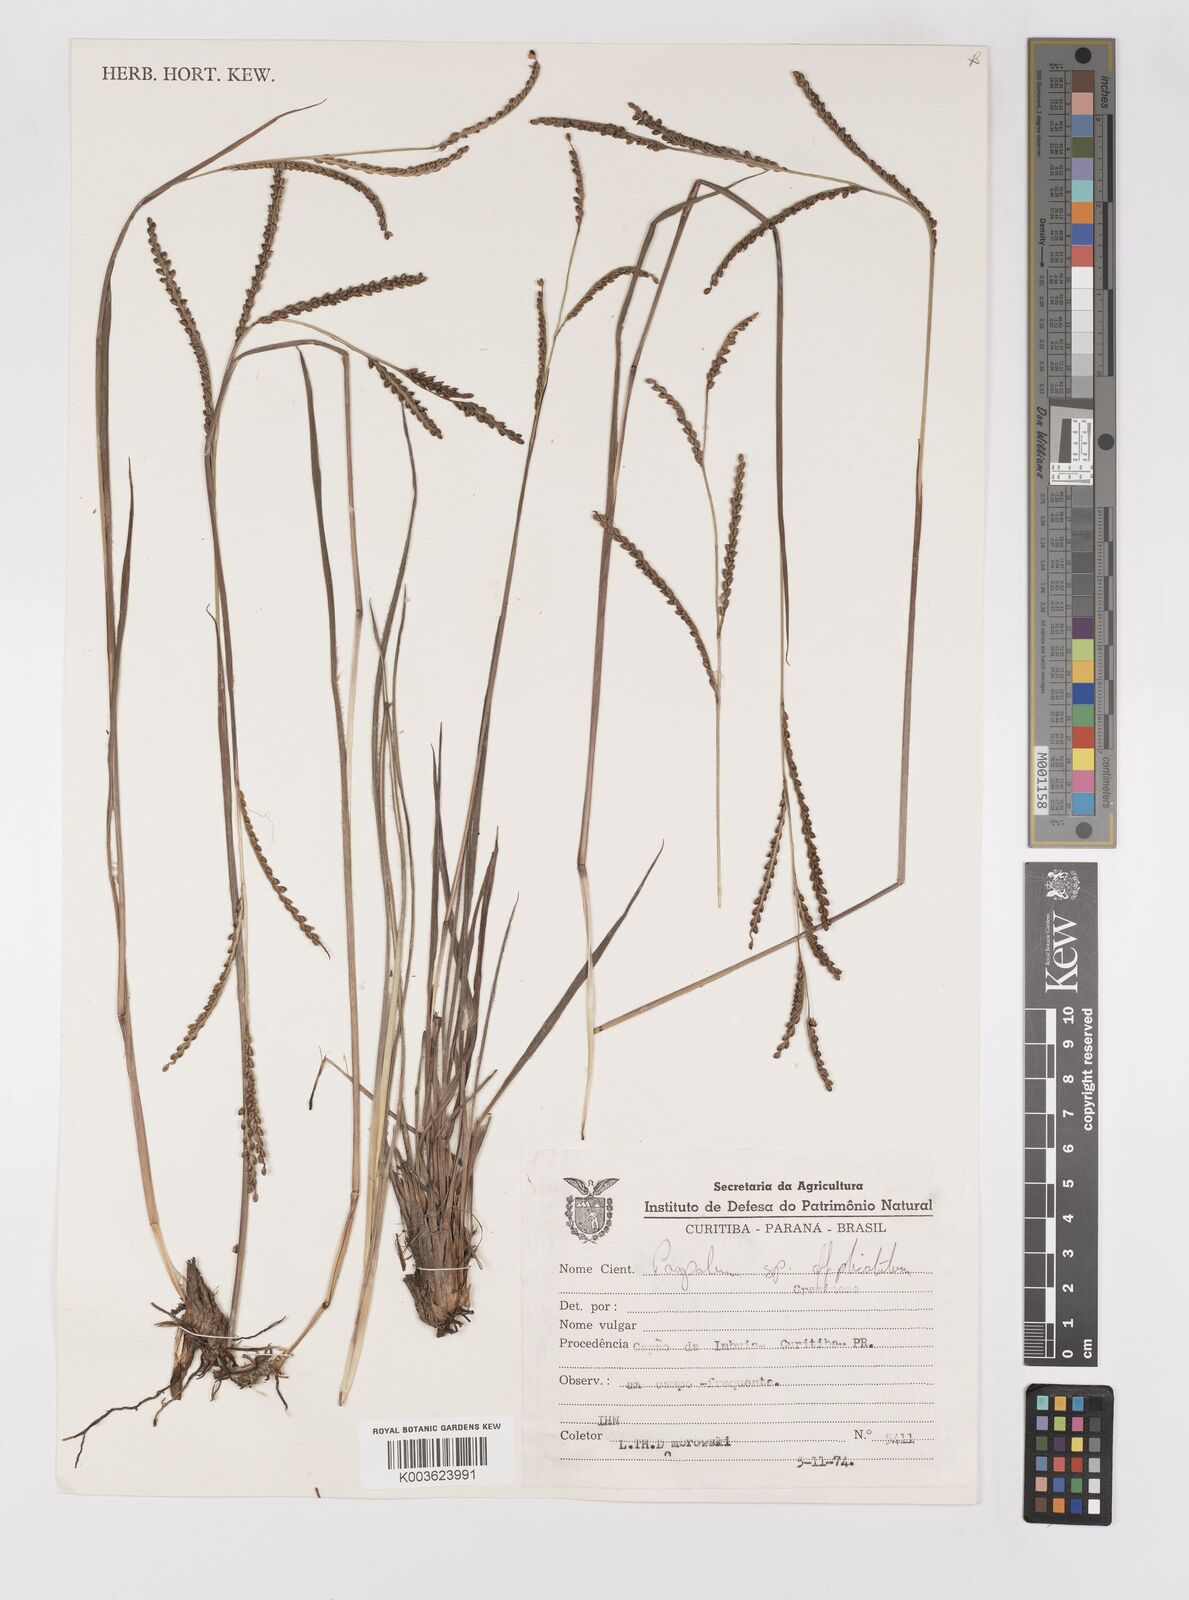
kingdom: Plantae
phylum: Tracheophyta
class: Liliopsida
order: Poales
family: Poaceae
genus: Paspalum
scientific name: Paspalum glaucescens
